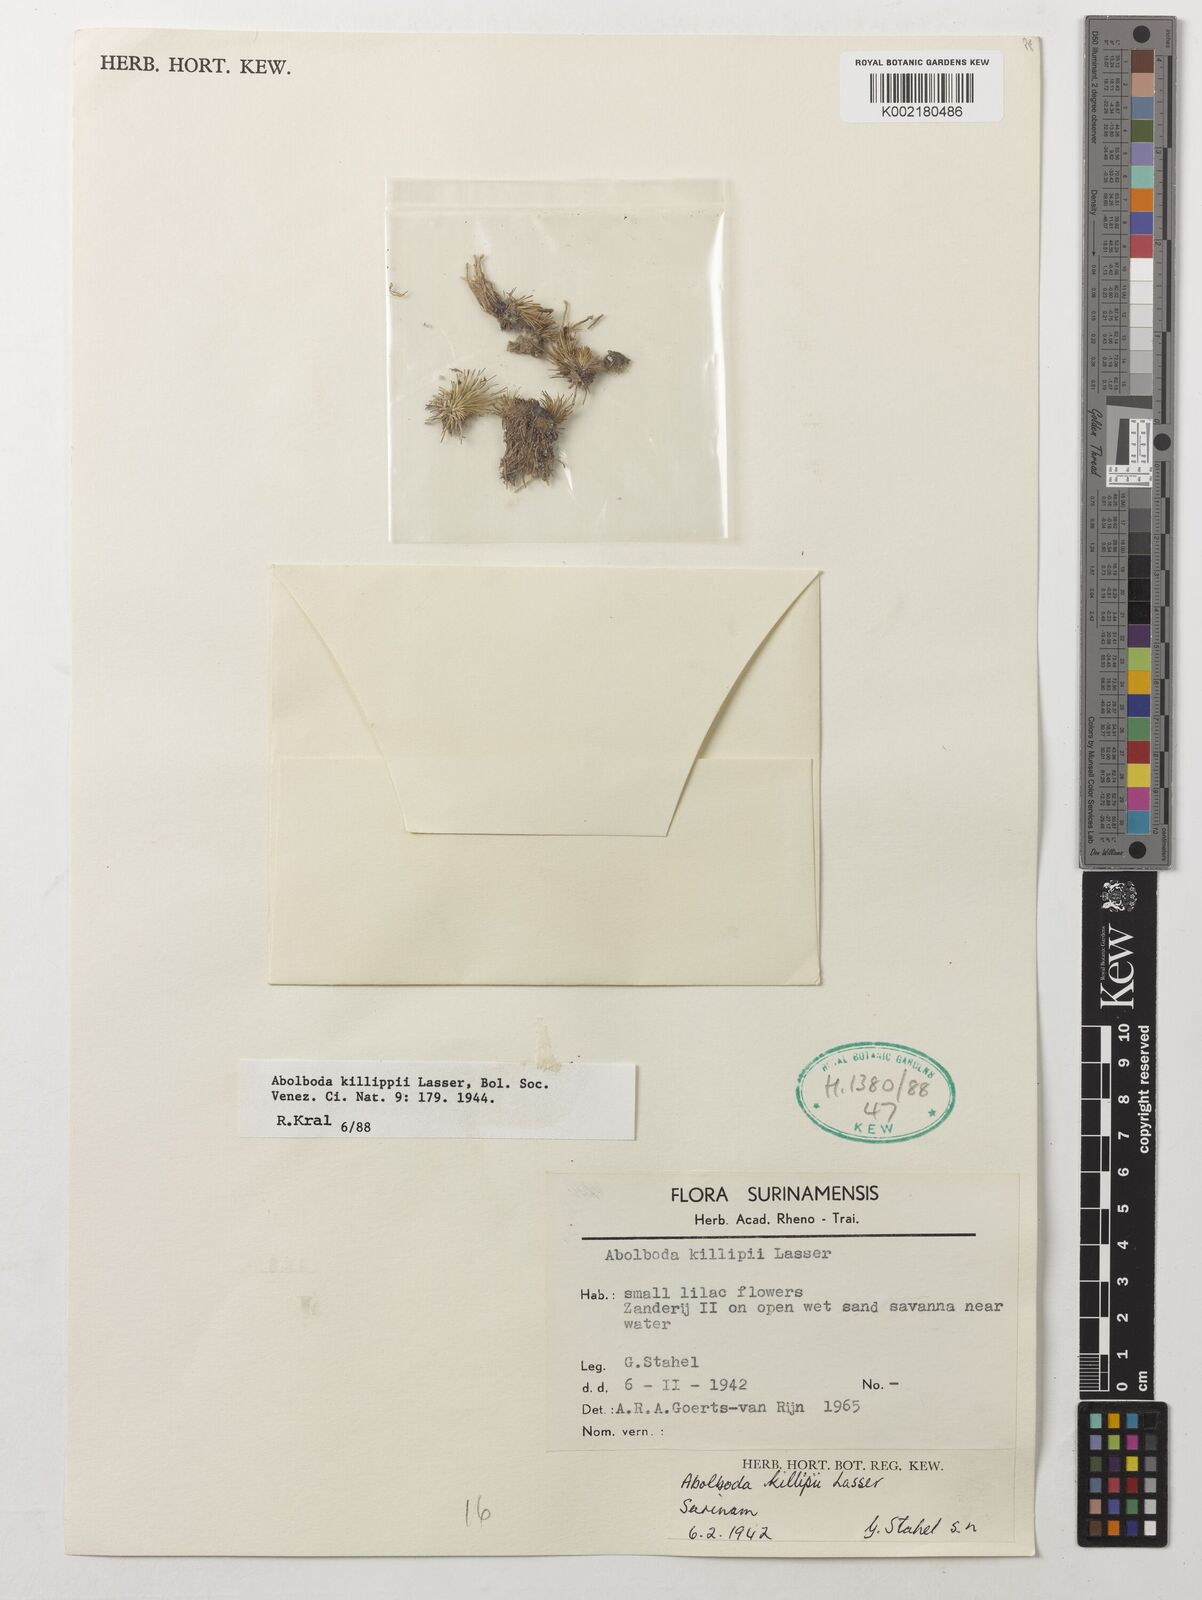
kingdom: Plantae
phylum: Tracheophyta
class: Liliopsida
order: Poales
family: Xyridaceae
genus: Abolboda
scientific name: Abolboda killipii
